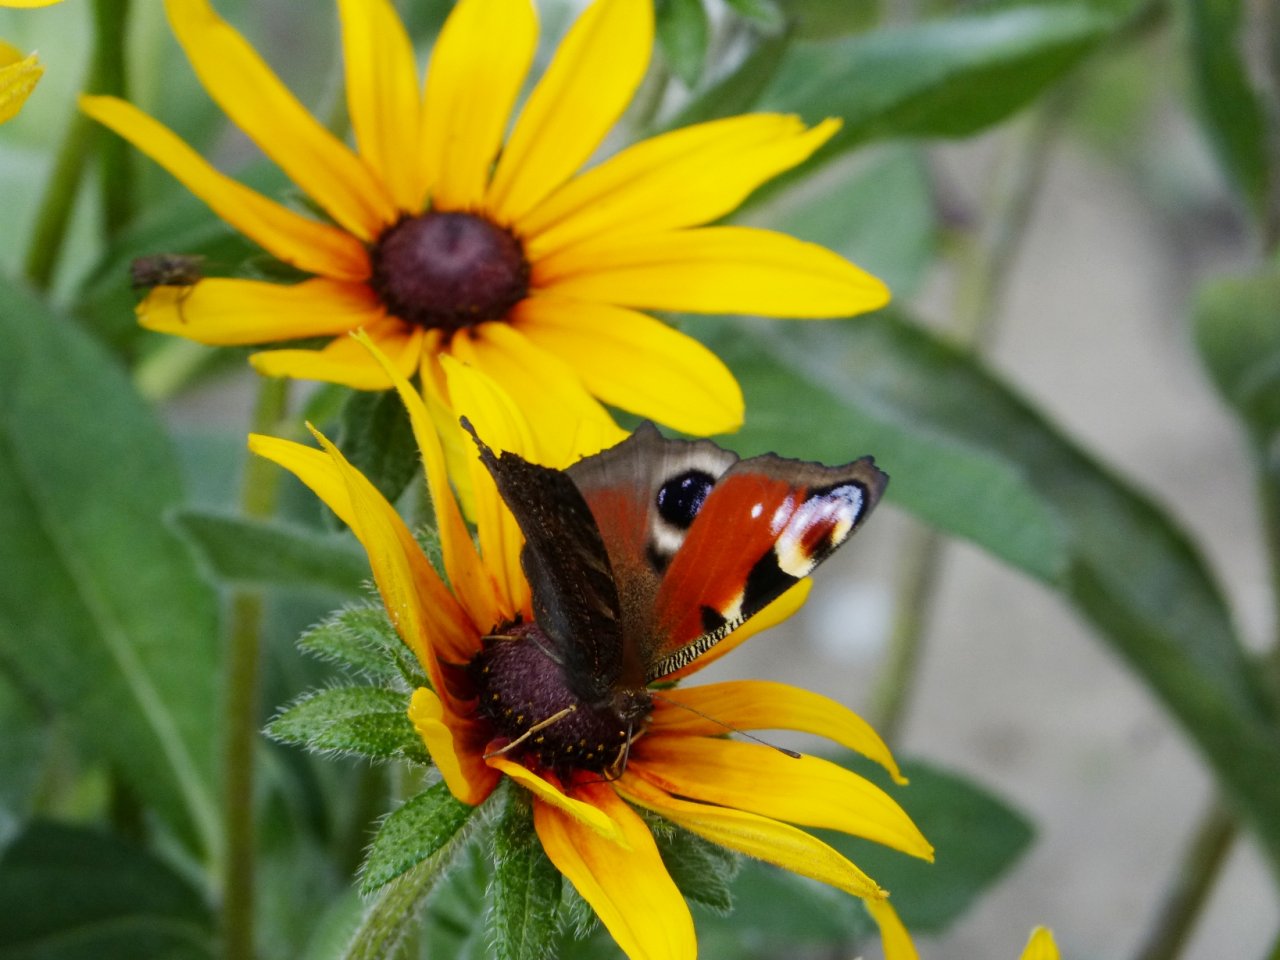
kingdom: Animalia
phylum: Arthropoda
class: Insecta
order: Lepidoptera
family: Nymphalidae
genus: Aglais
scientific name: Aglais io
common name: European Peacock
